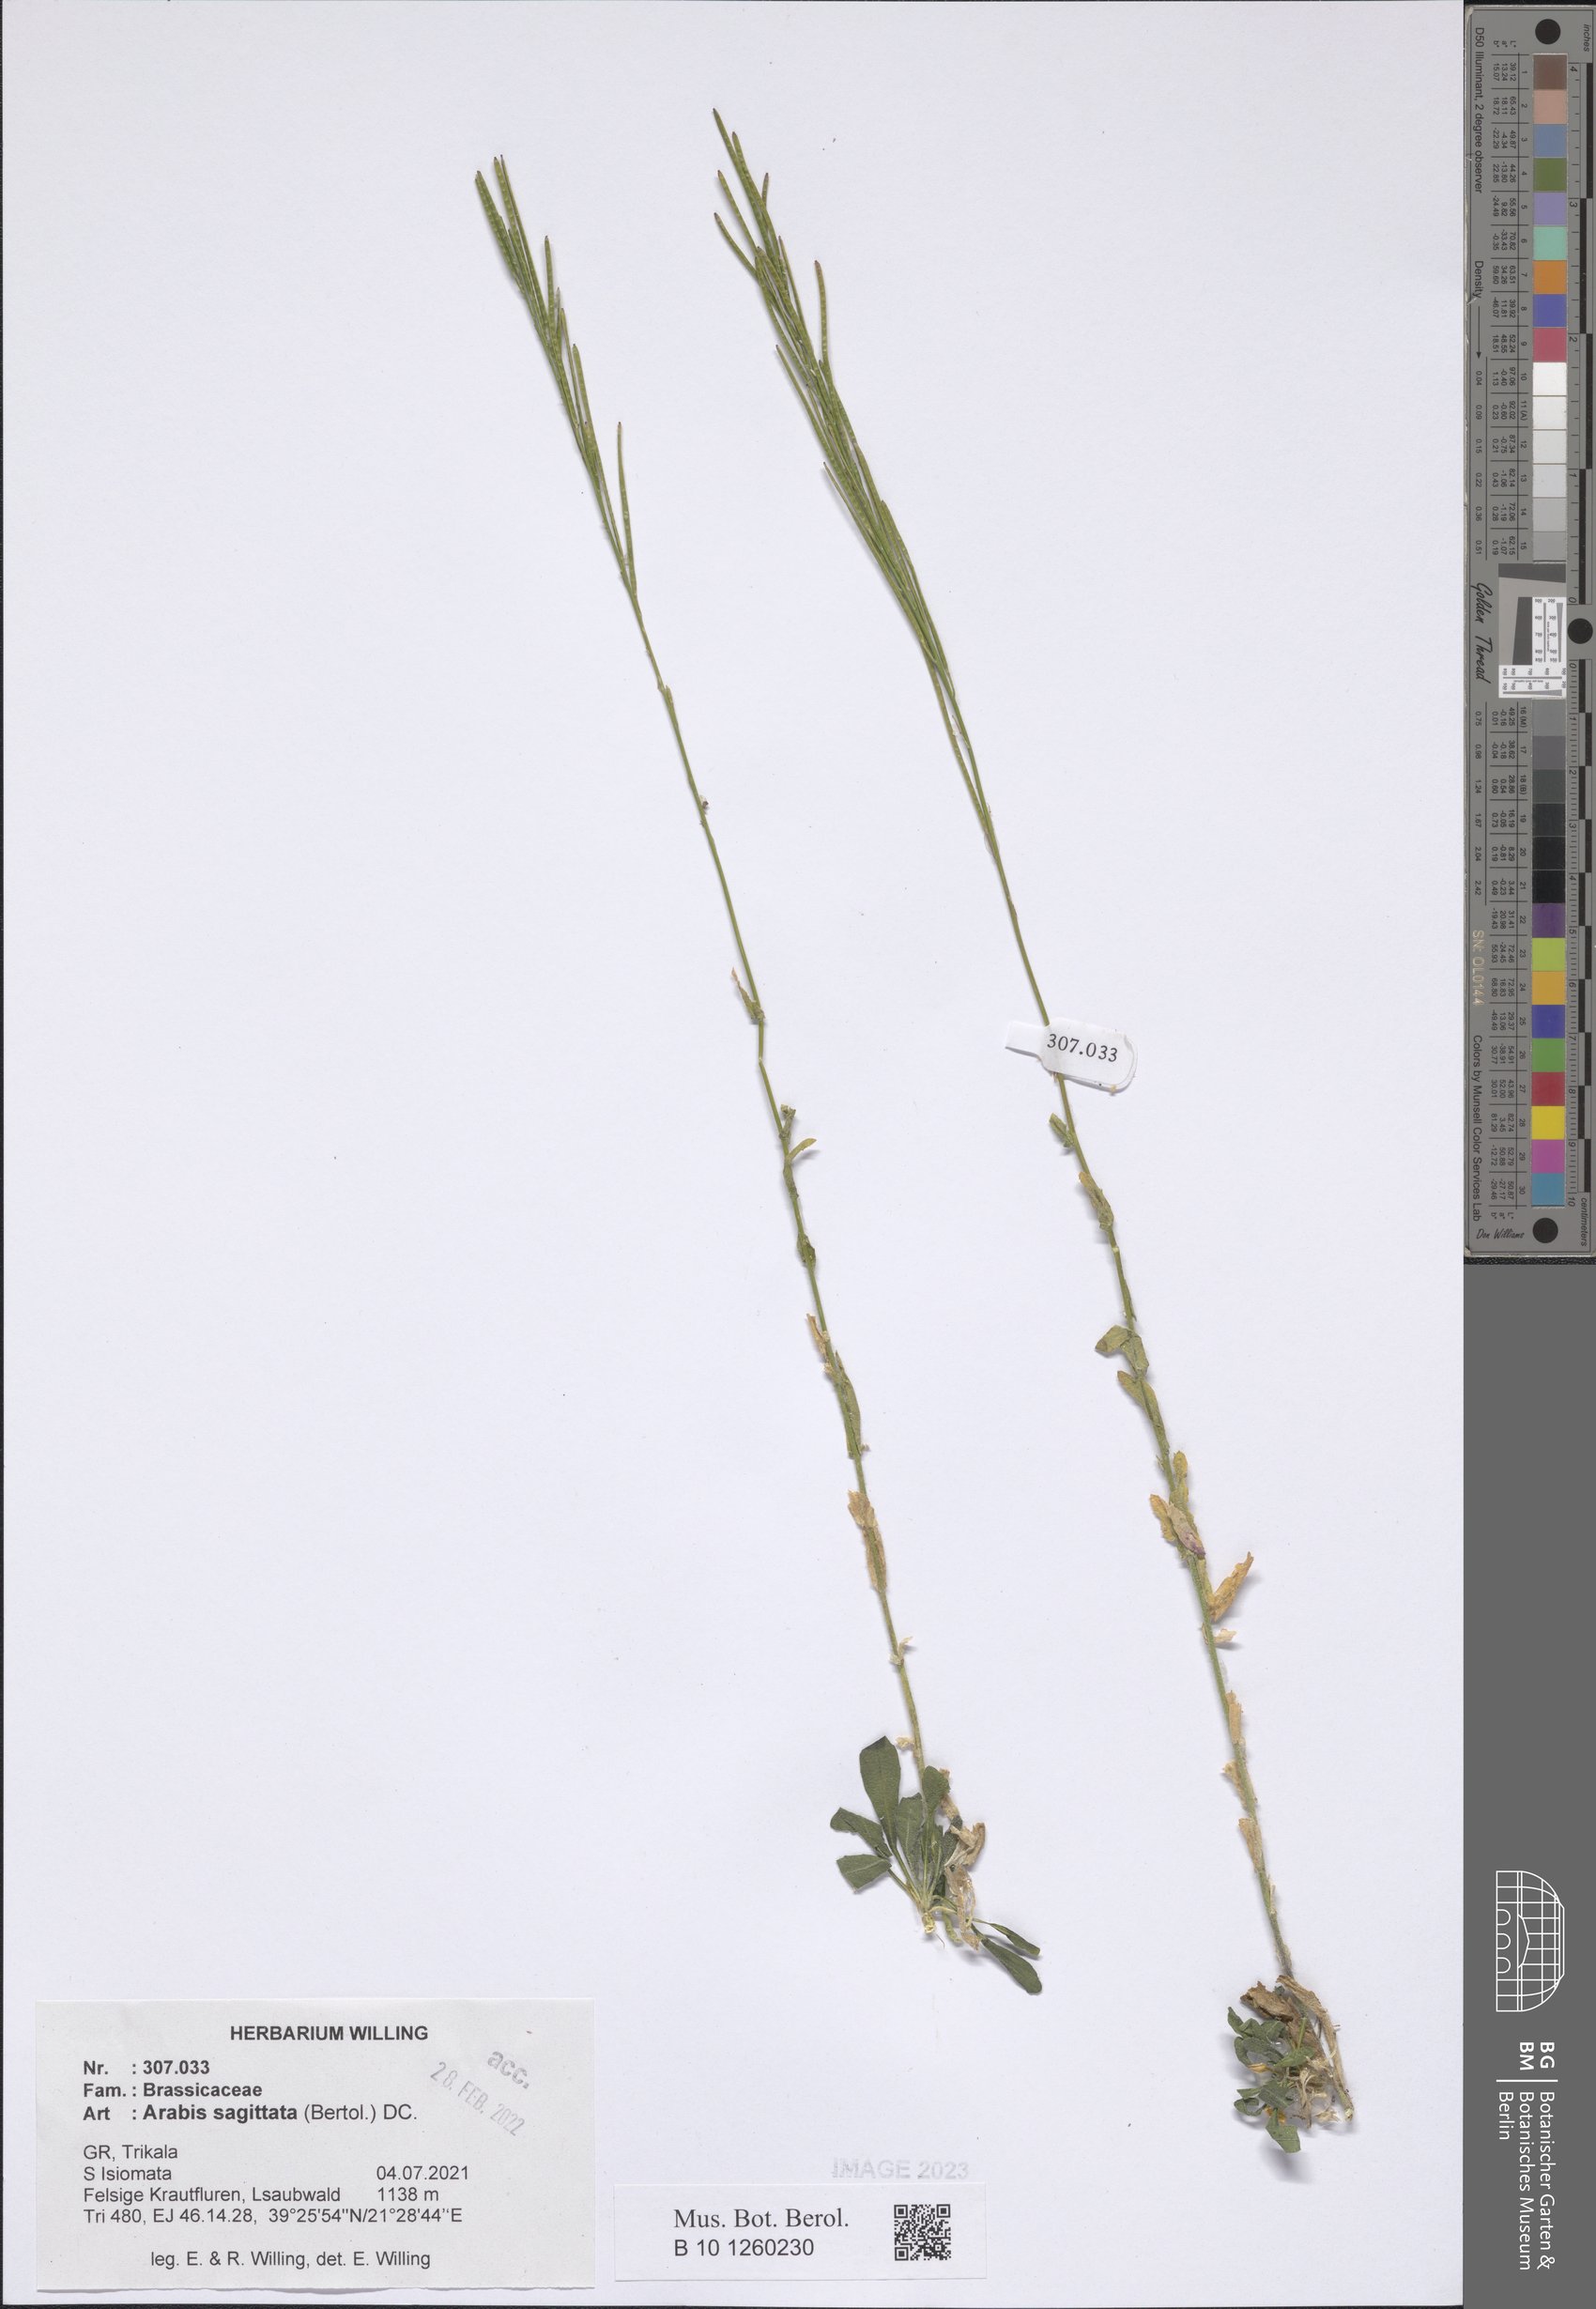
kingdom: Plantae
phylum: Tracheophyta
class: Magnoliopsida
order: Brassicales
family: Brassicaceae
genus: Arabis
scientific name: Arabis sagittata
